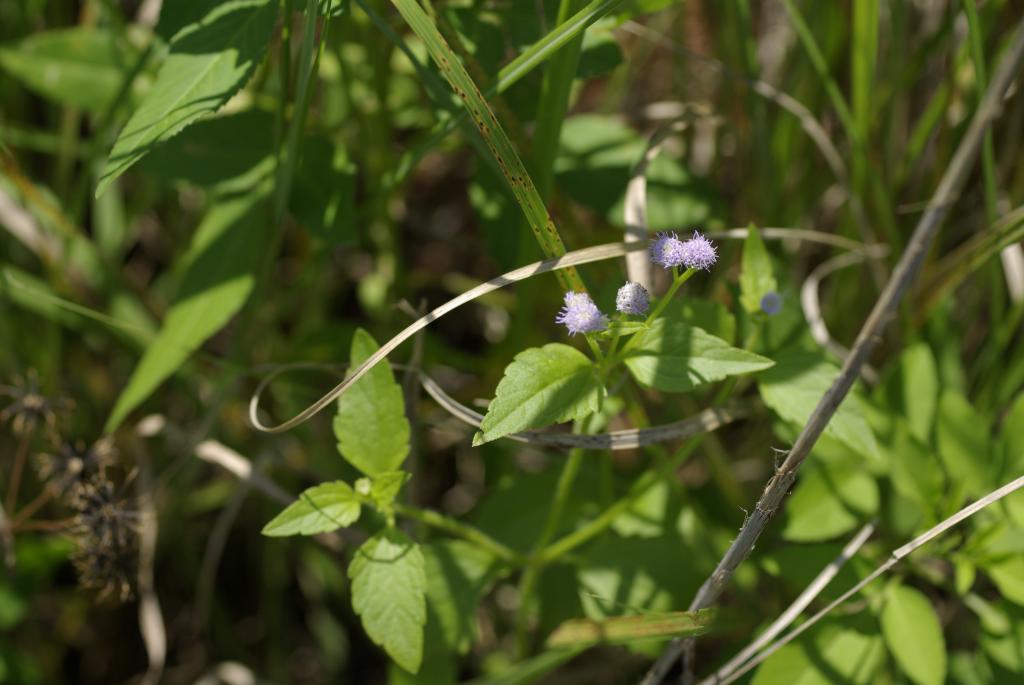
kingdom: Plantae
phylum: Tracheophyta
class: Magnoliopsida
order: Asterales
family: Asteraceae
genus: Praxelis
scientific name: Praxelis clematidea
